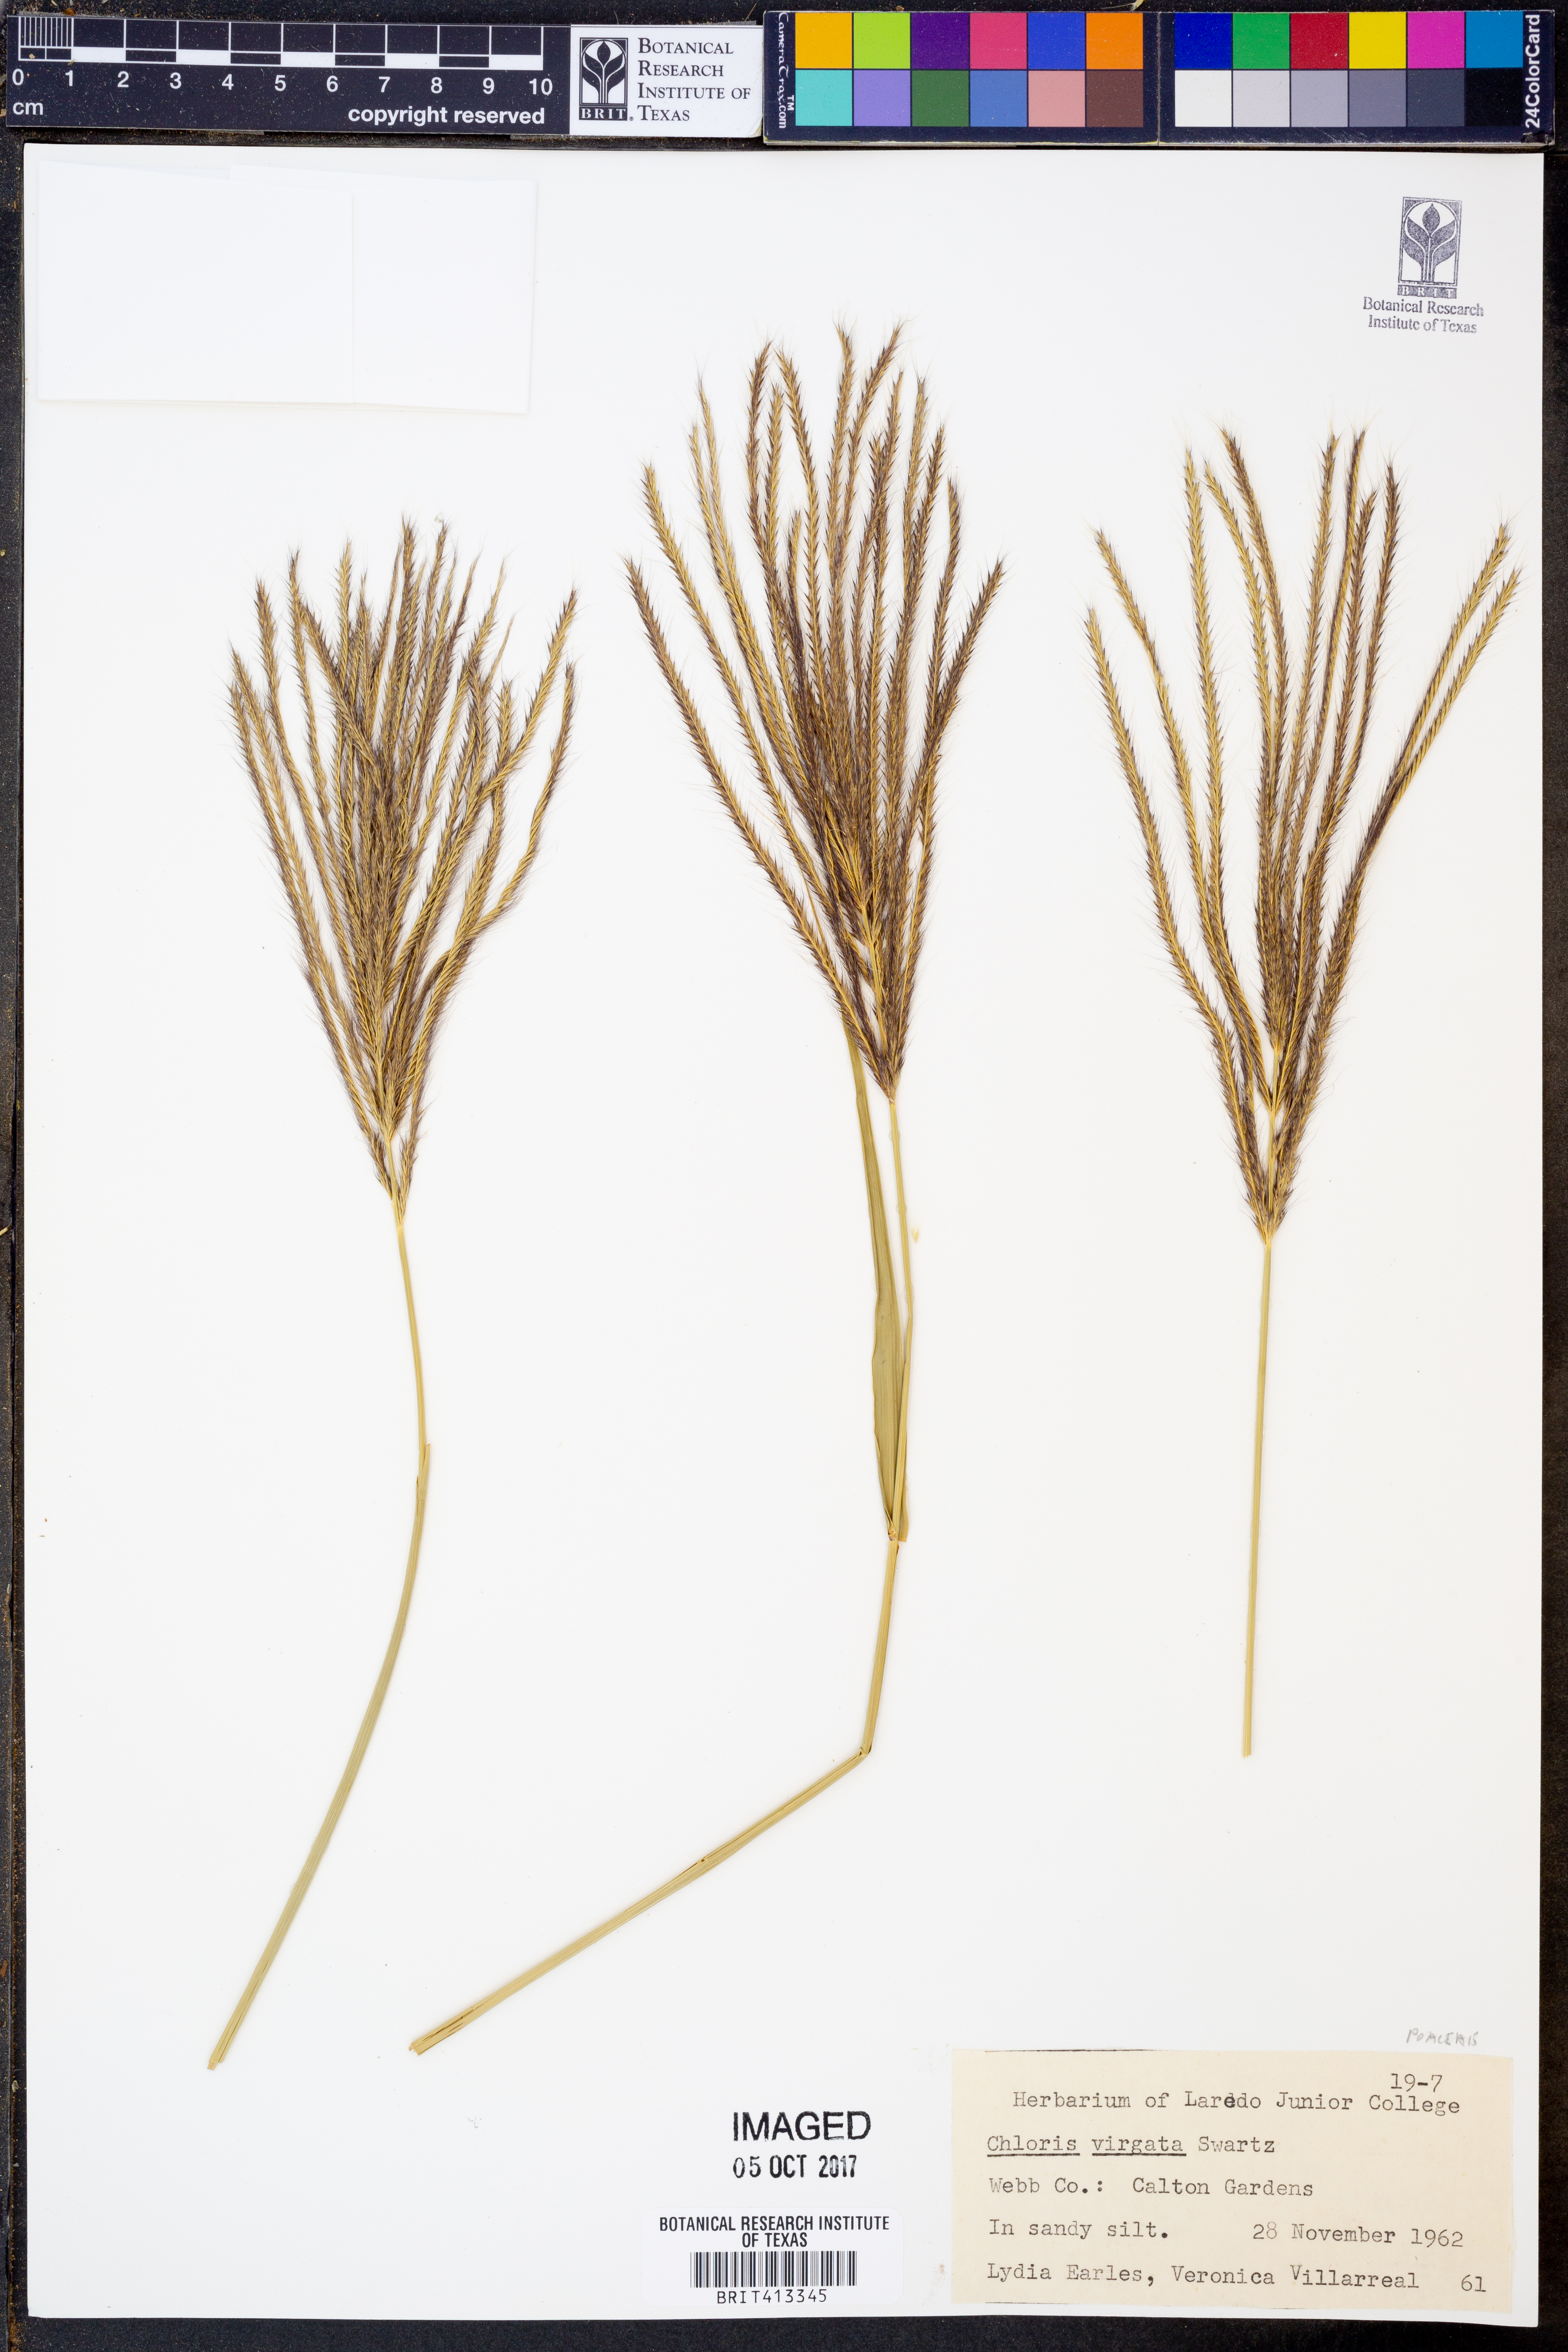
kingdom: Plantae
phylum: Tracheophyta
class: Liliopsida
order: Poales
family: Poaceae
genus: Chloris
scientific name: Chloris virgata
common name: Feathery rhodes-grass
